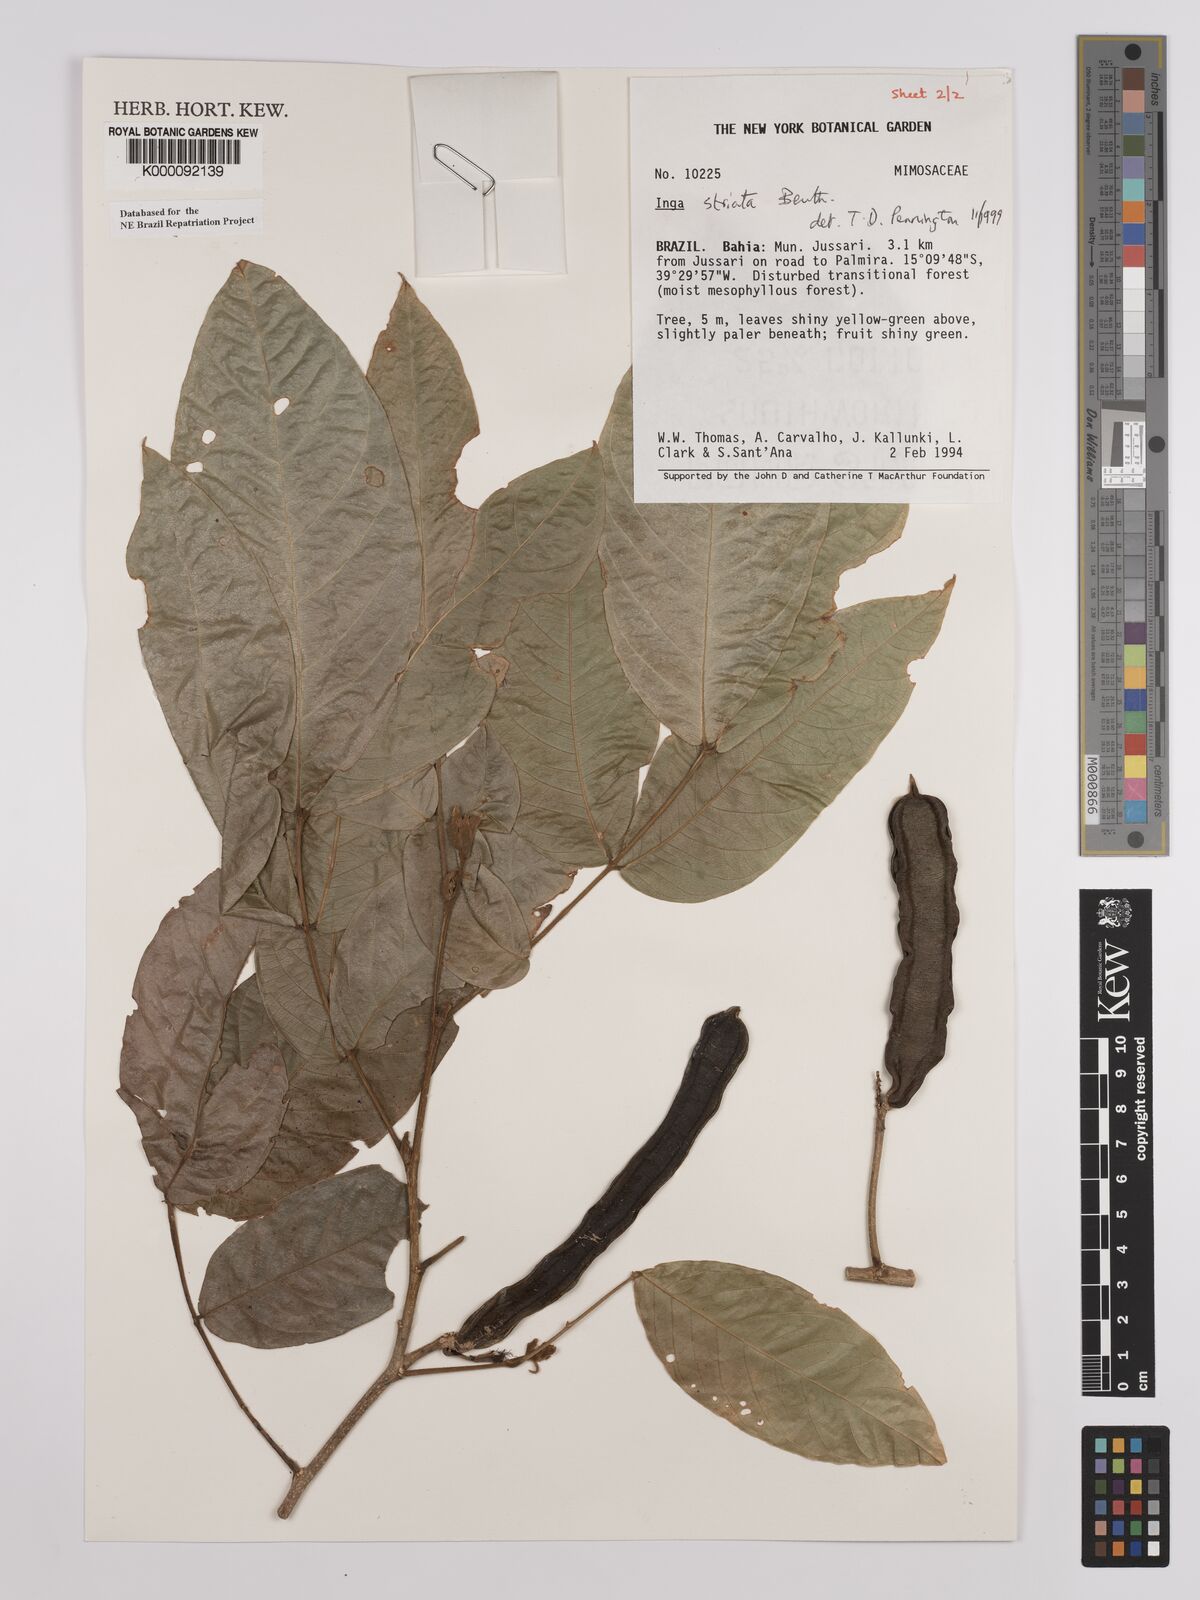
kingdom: Plantae
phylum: Tracheophyta
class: Magnoliopsida
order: Fabales
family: Fabaceae
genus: Inga
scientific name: Inga striata
